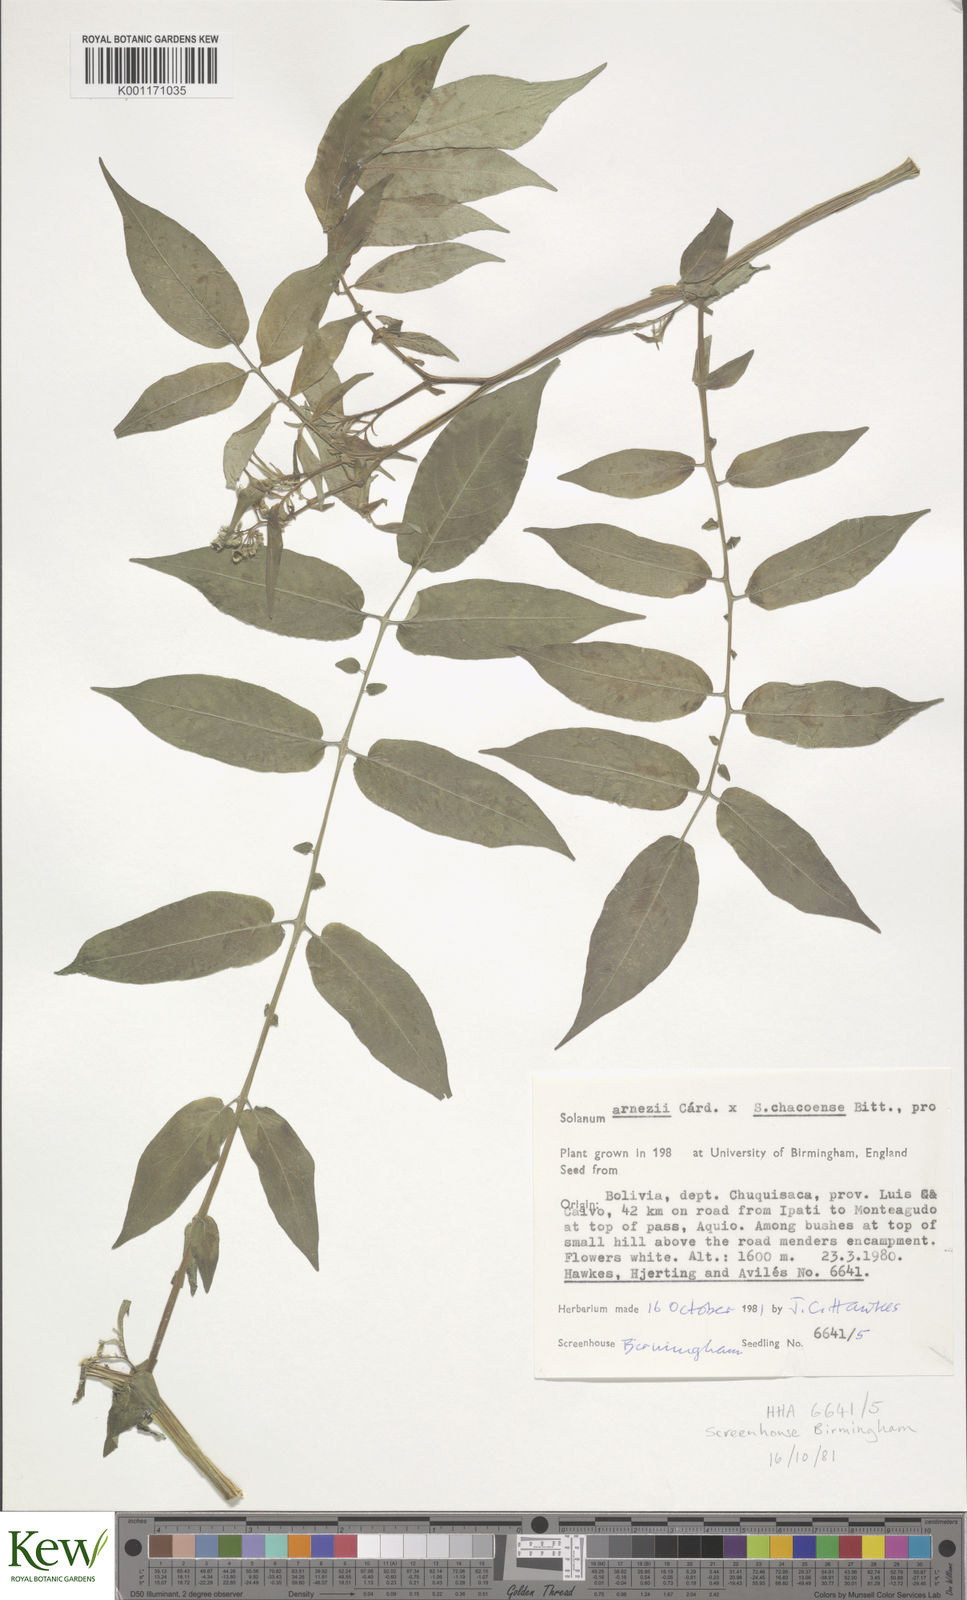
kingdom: Plantae
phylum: Tracheophyta
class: Magnoliopsida
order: Solanales
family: Solanaceae
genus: Solanum
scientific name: Solanum
